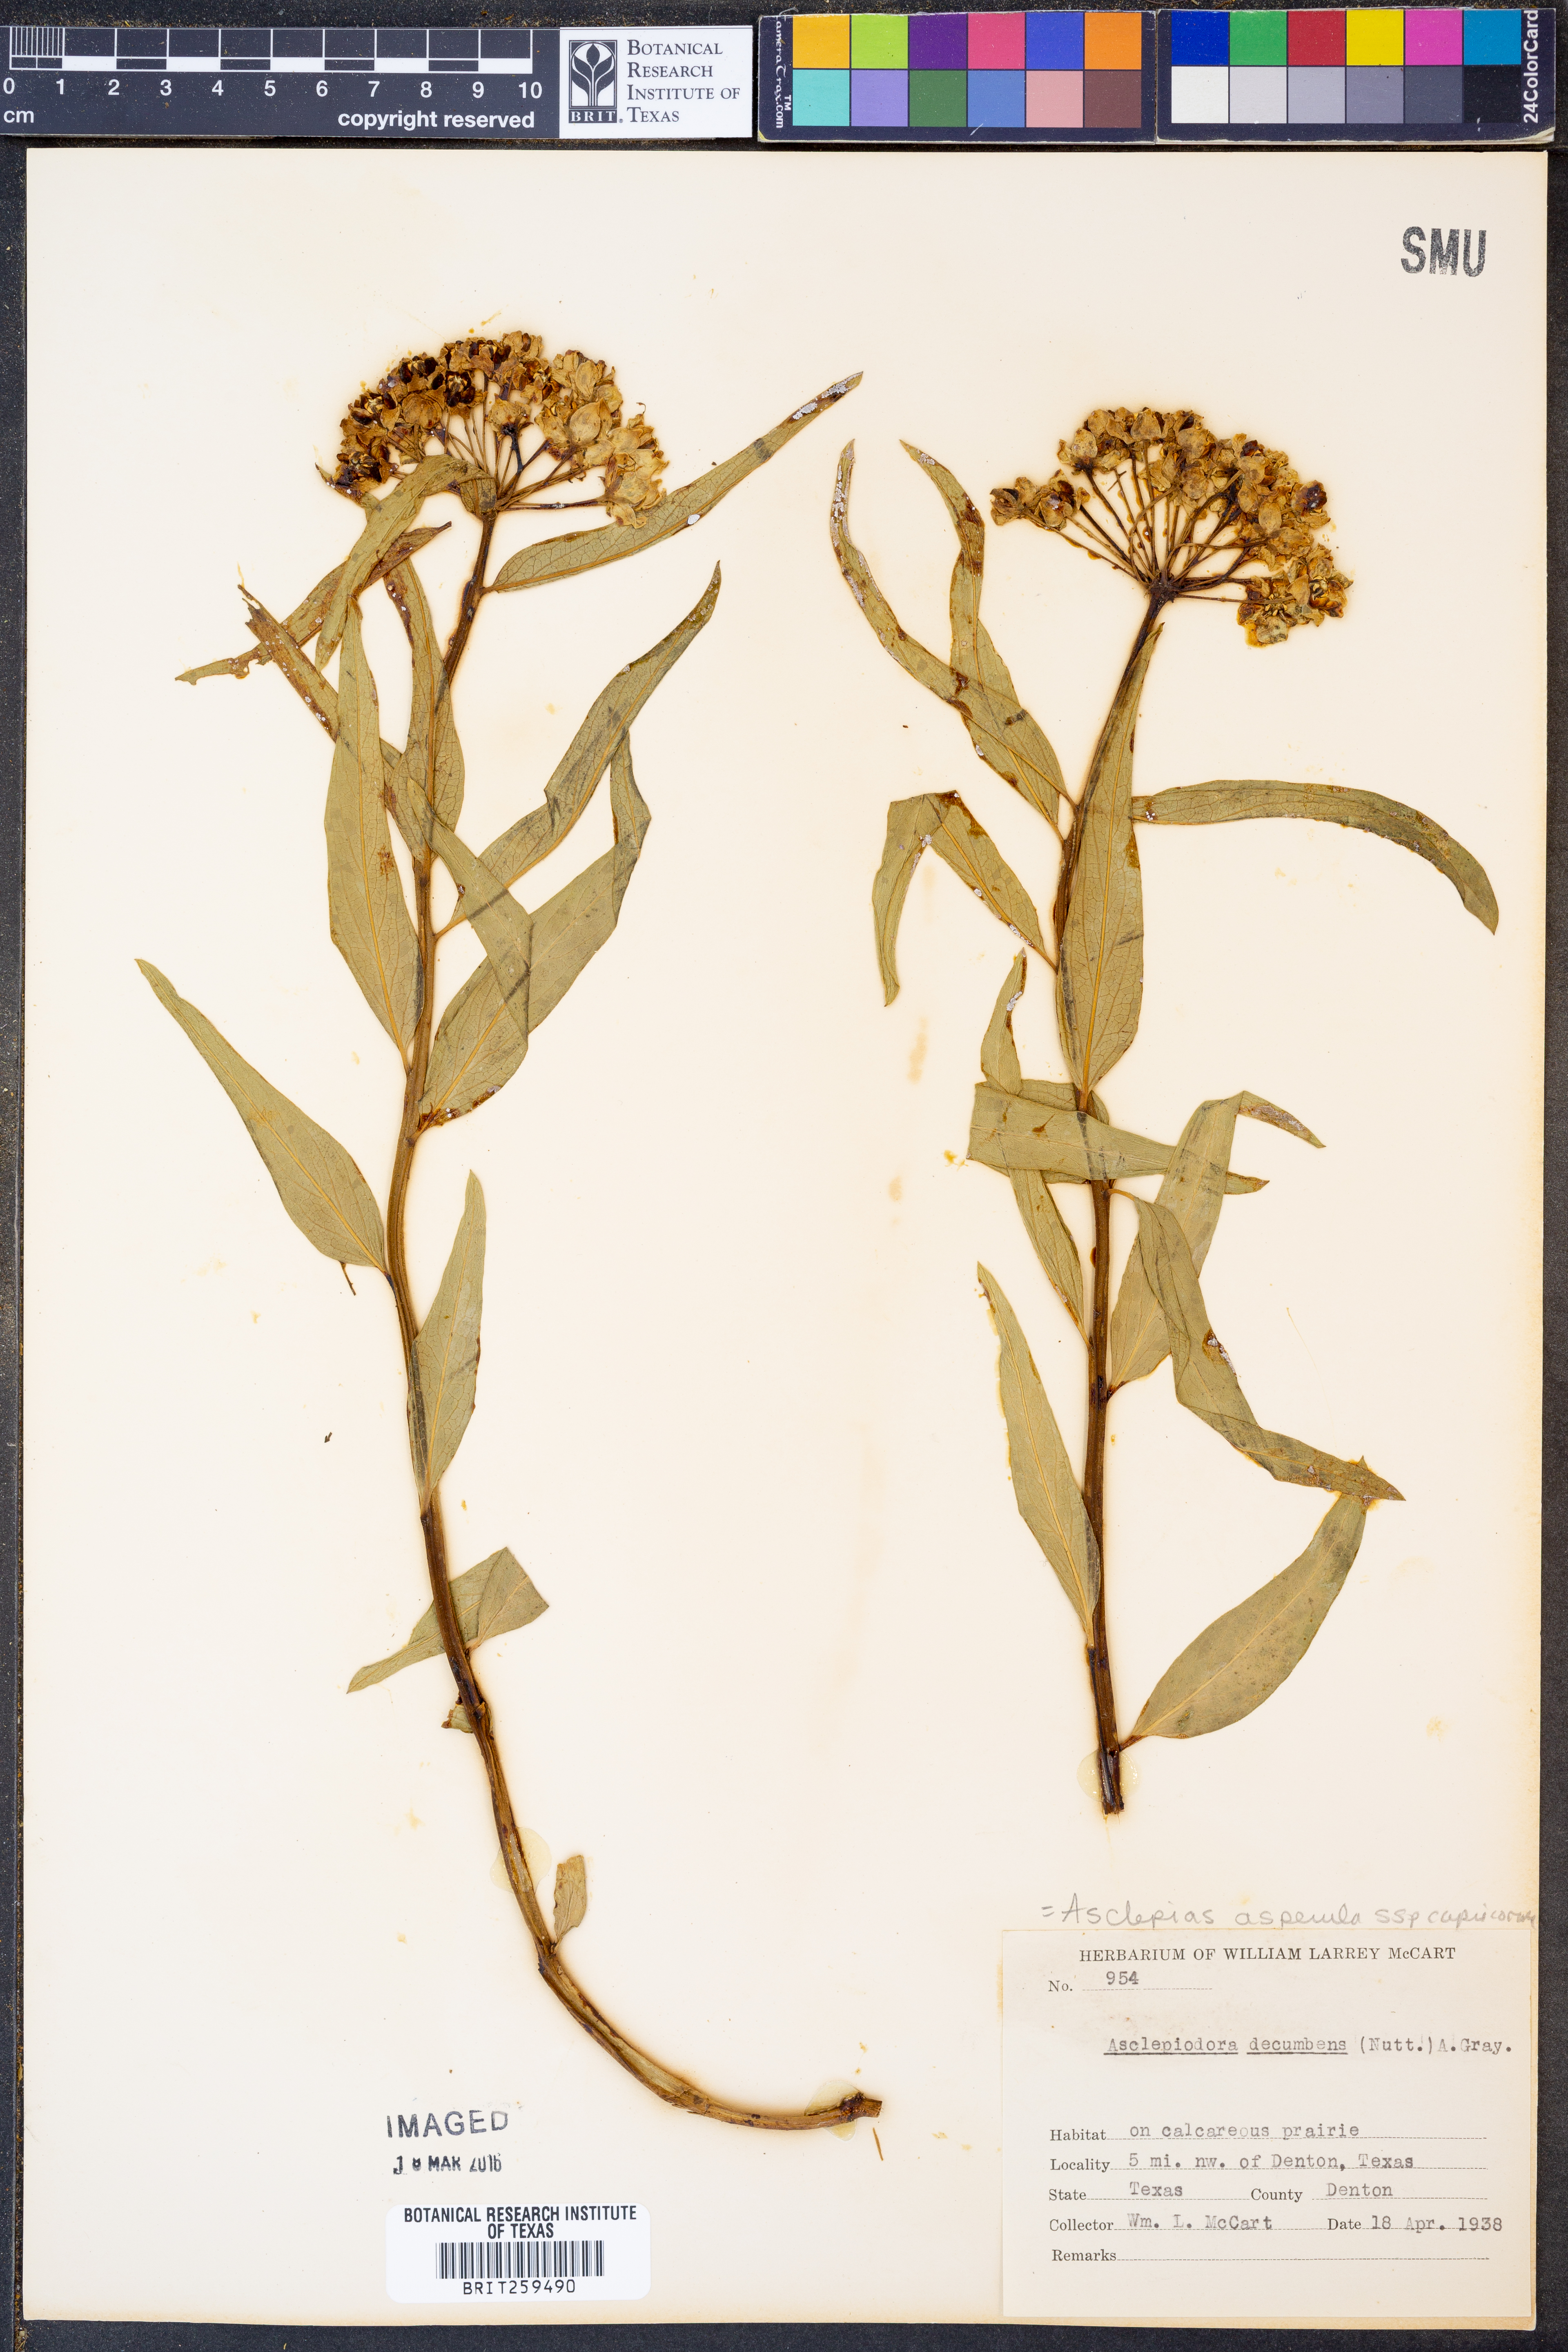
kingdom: Plantae
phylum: Tracheophyta
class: Magnoliopsida
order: Gentianales
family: Apocynaceae
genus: Asclepias
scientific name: Asclepias asperula
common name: Antelope horns
